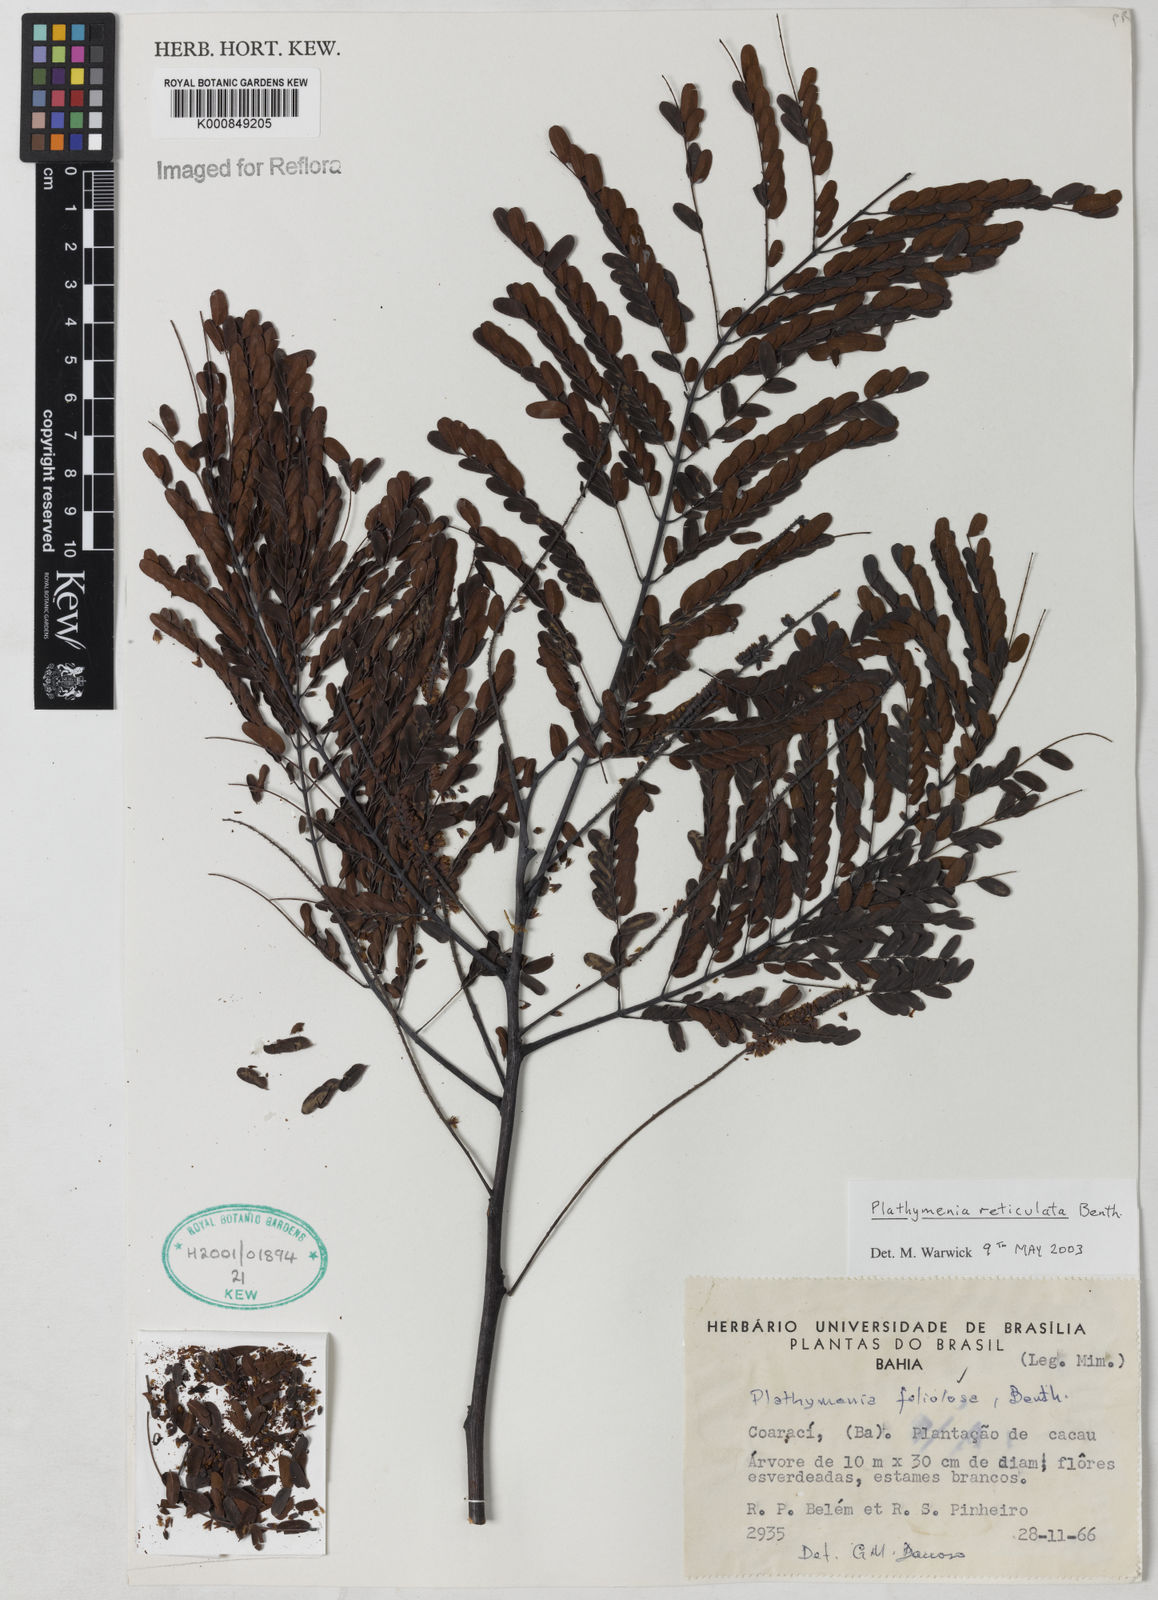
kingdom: Plantae
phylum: Tracheophyta
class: Magnoliopsida
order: Fabales
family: Fabaceae
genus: Plathymenia
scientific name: Plathymenia reticulata
